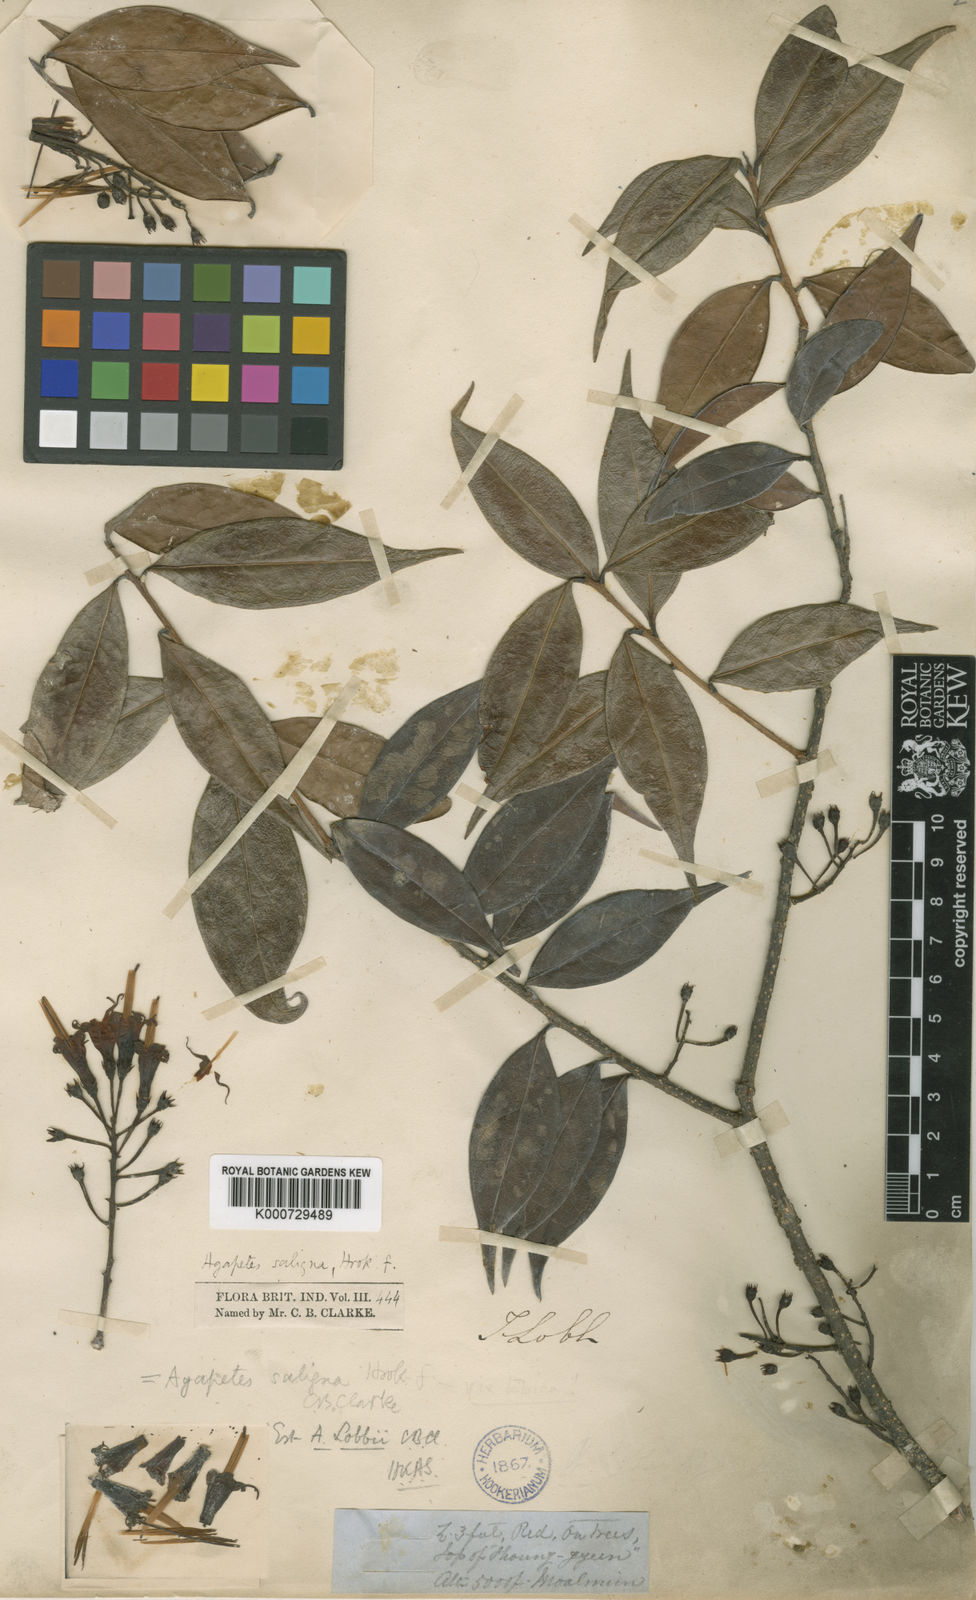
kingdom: Plantae
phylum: Tracheophyta
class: Magnoliopsida
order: Ericales
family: Ericaceae
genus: Agapetes
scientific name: Agapetes lobbii
